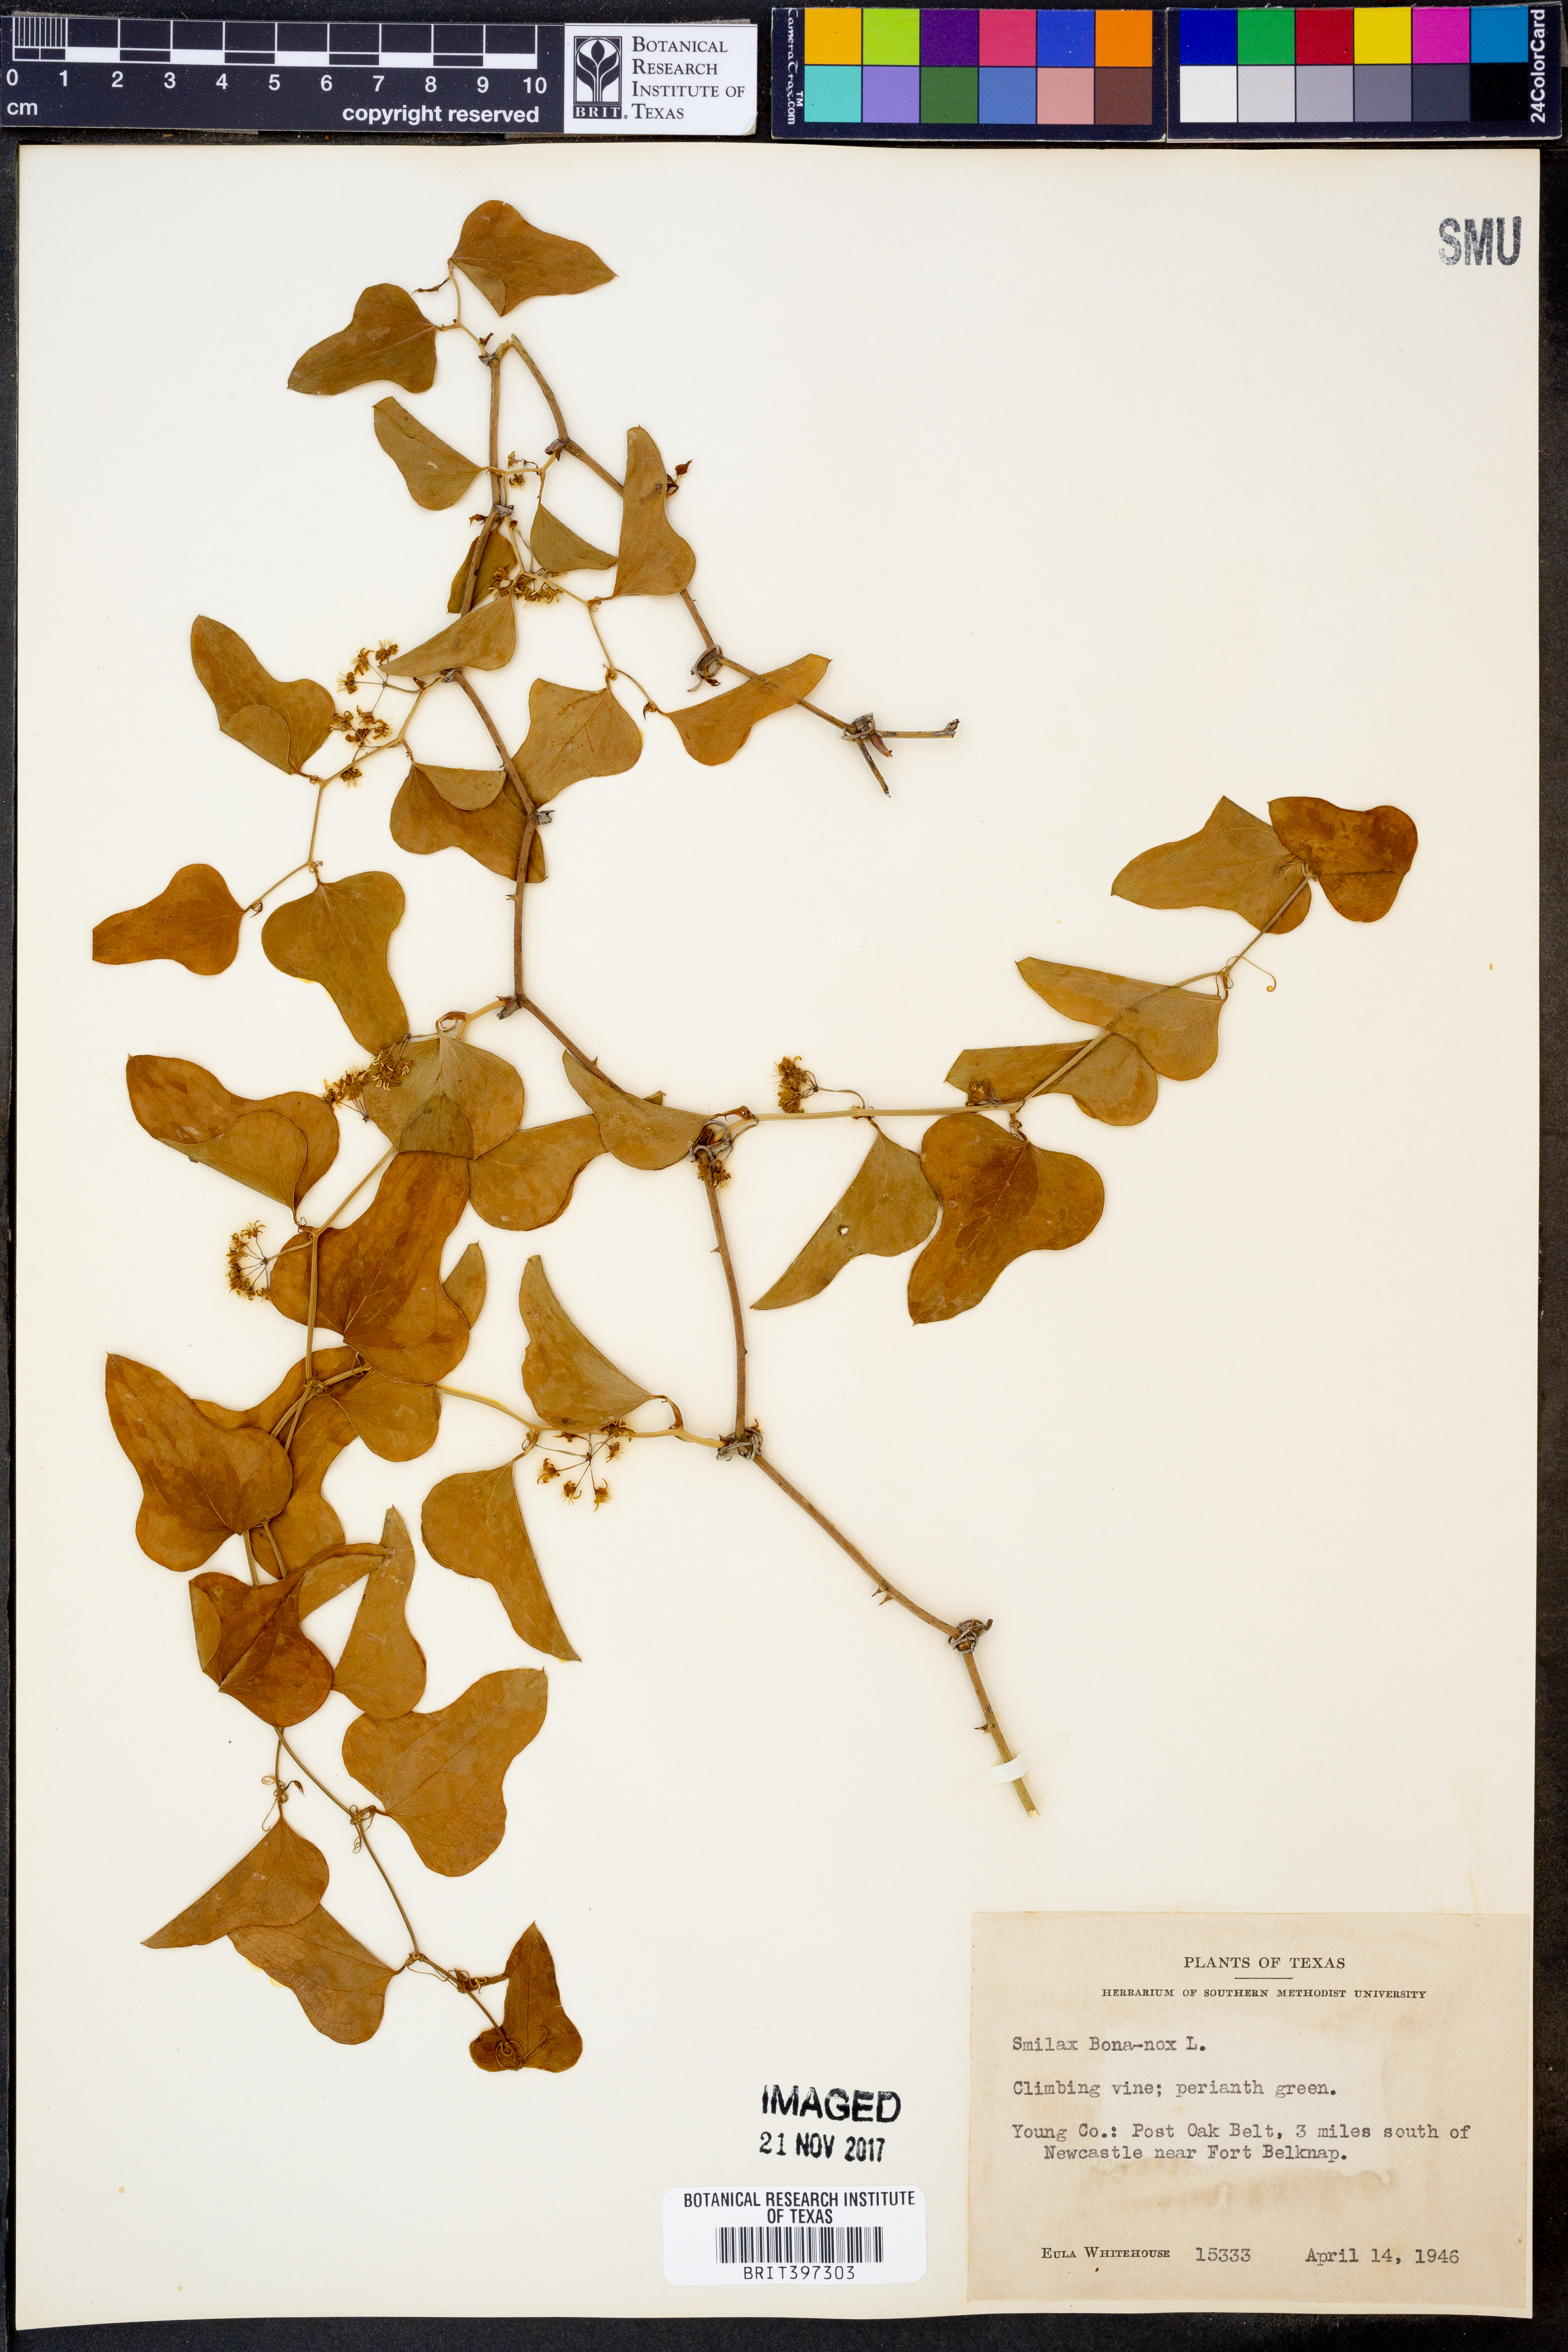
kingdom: Plantae
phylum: Tracheophyta
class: Liliopsida
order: Liliales
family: Smilacaceae
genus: Smilax
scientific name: Smilax bona-nox
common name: Catbrier
